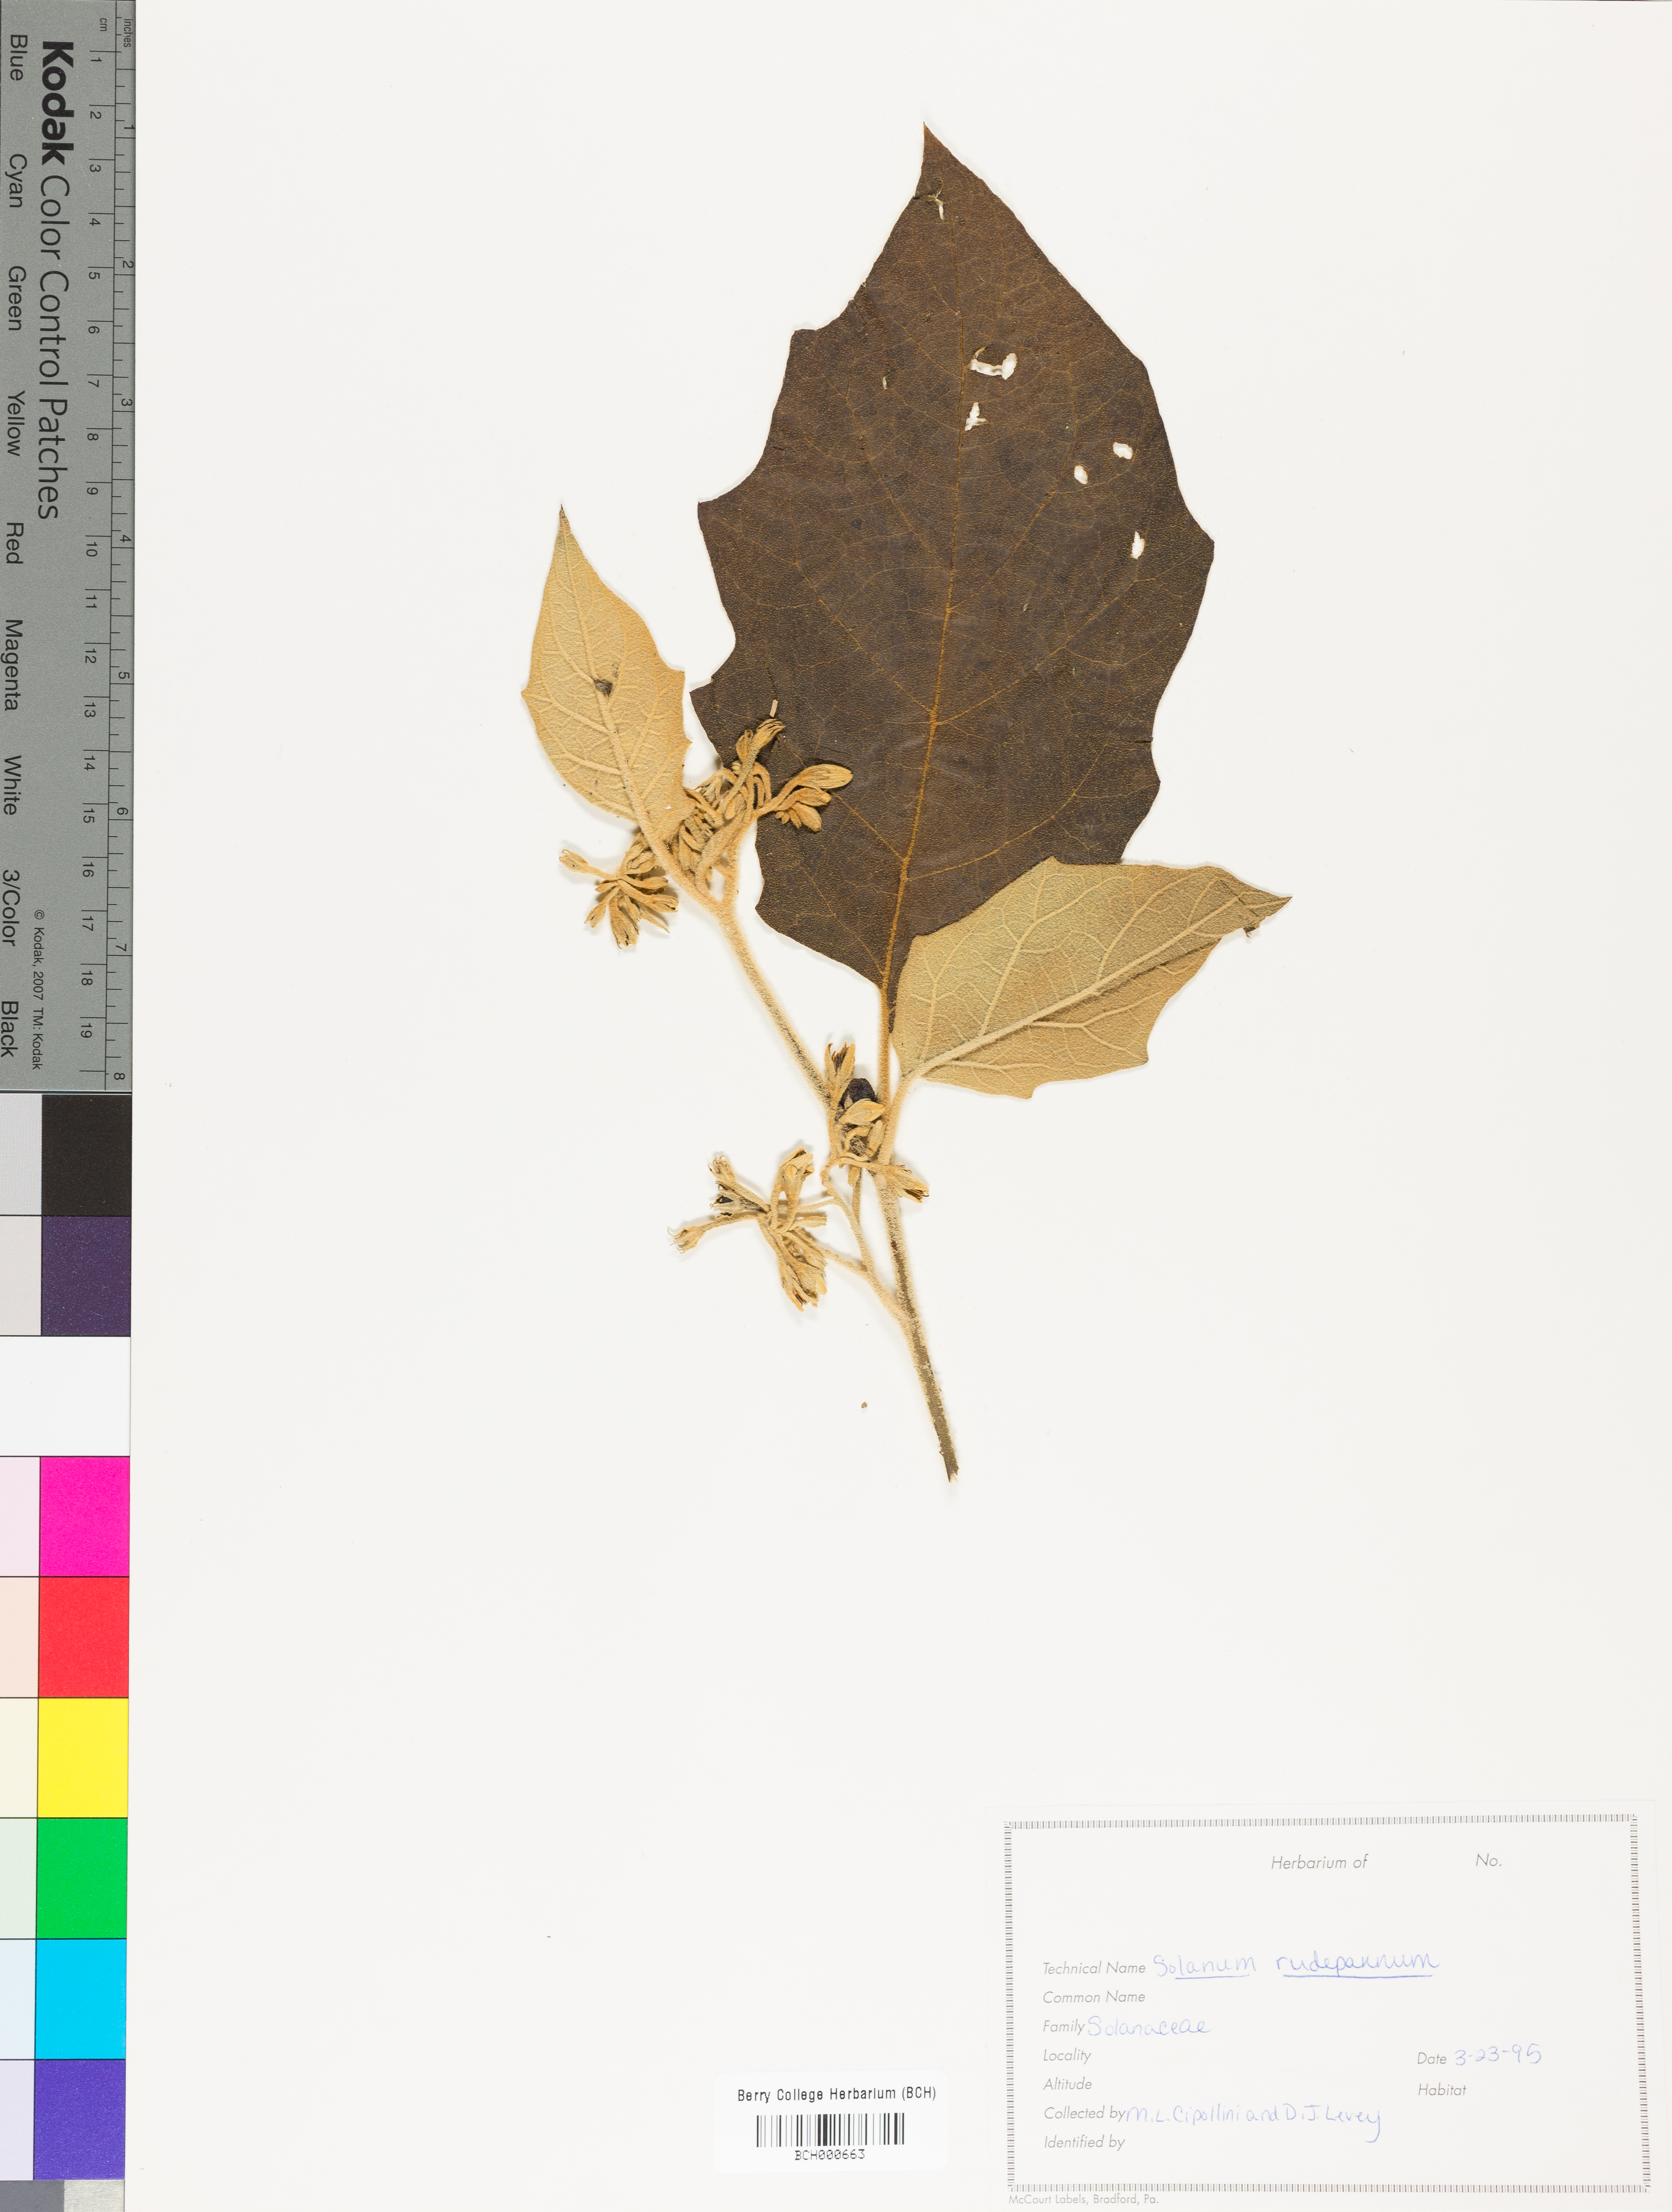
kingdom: Plantae
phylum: Tracheophyta
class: Magnoliopsida
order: Solanales
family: Solanaceae
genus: Solanum
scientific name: Solanum rude-pannum
